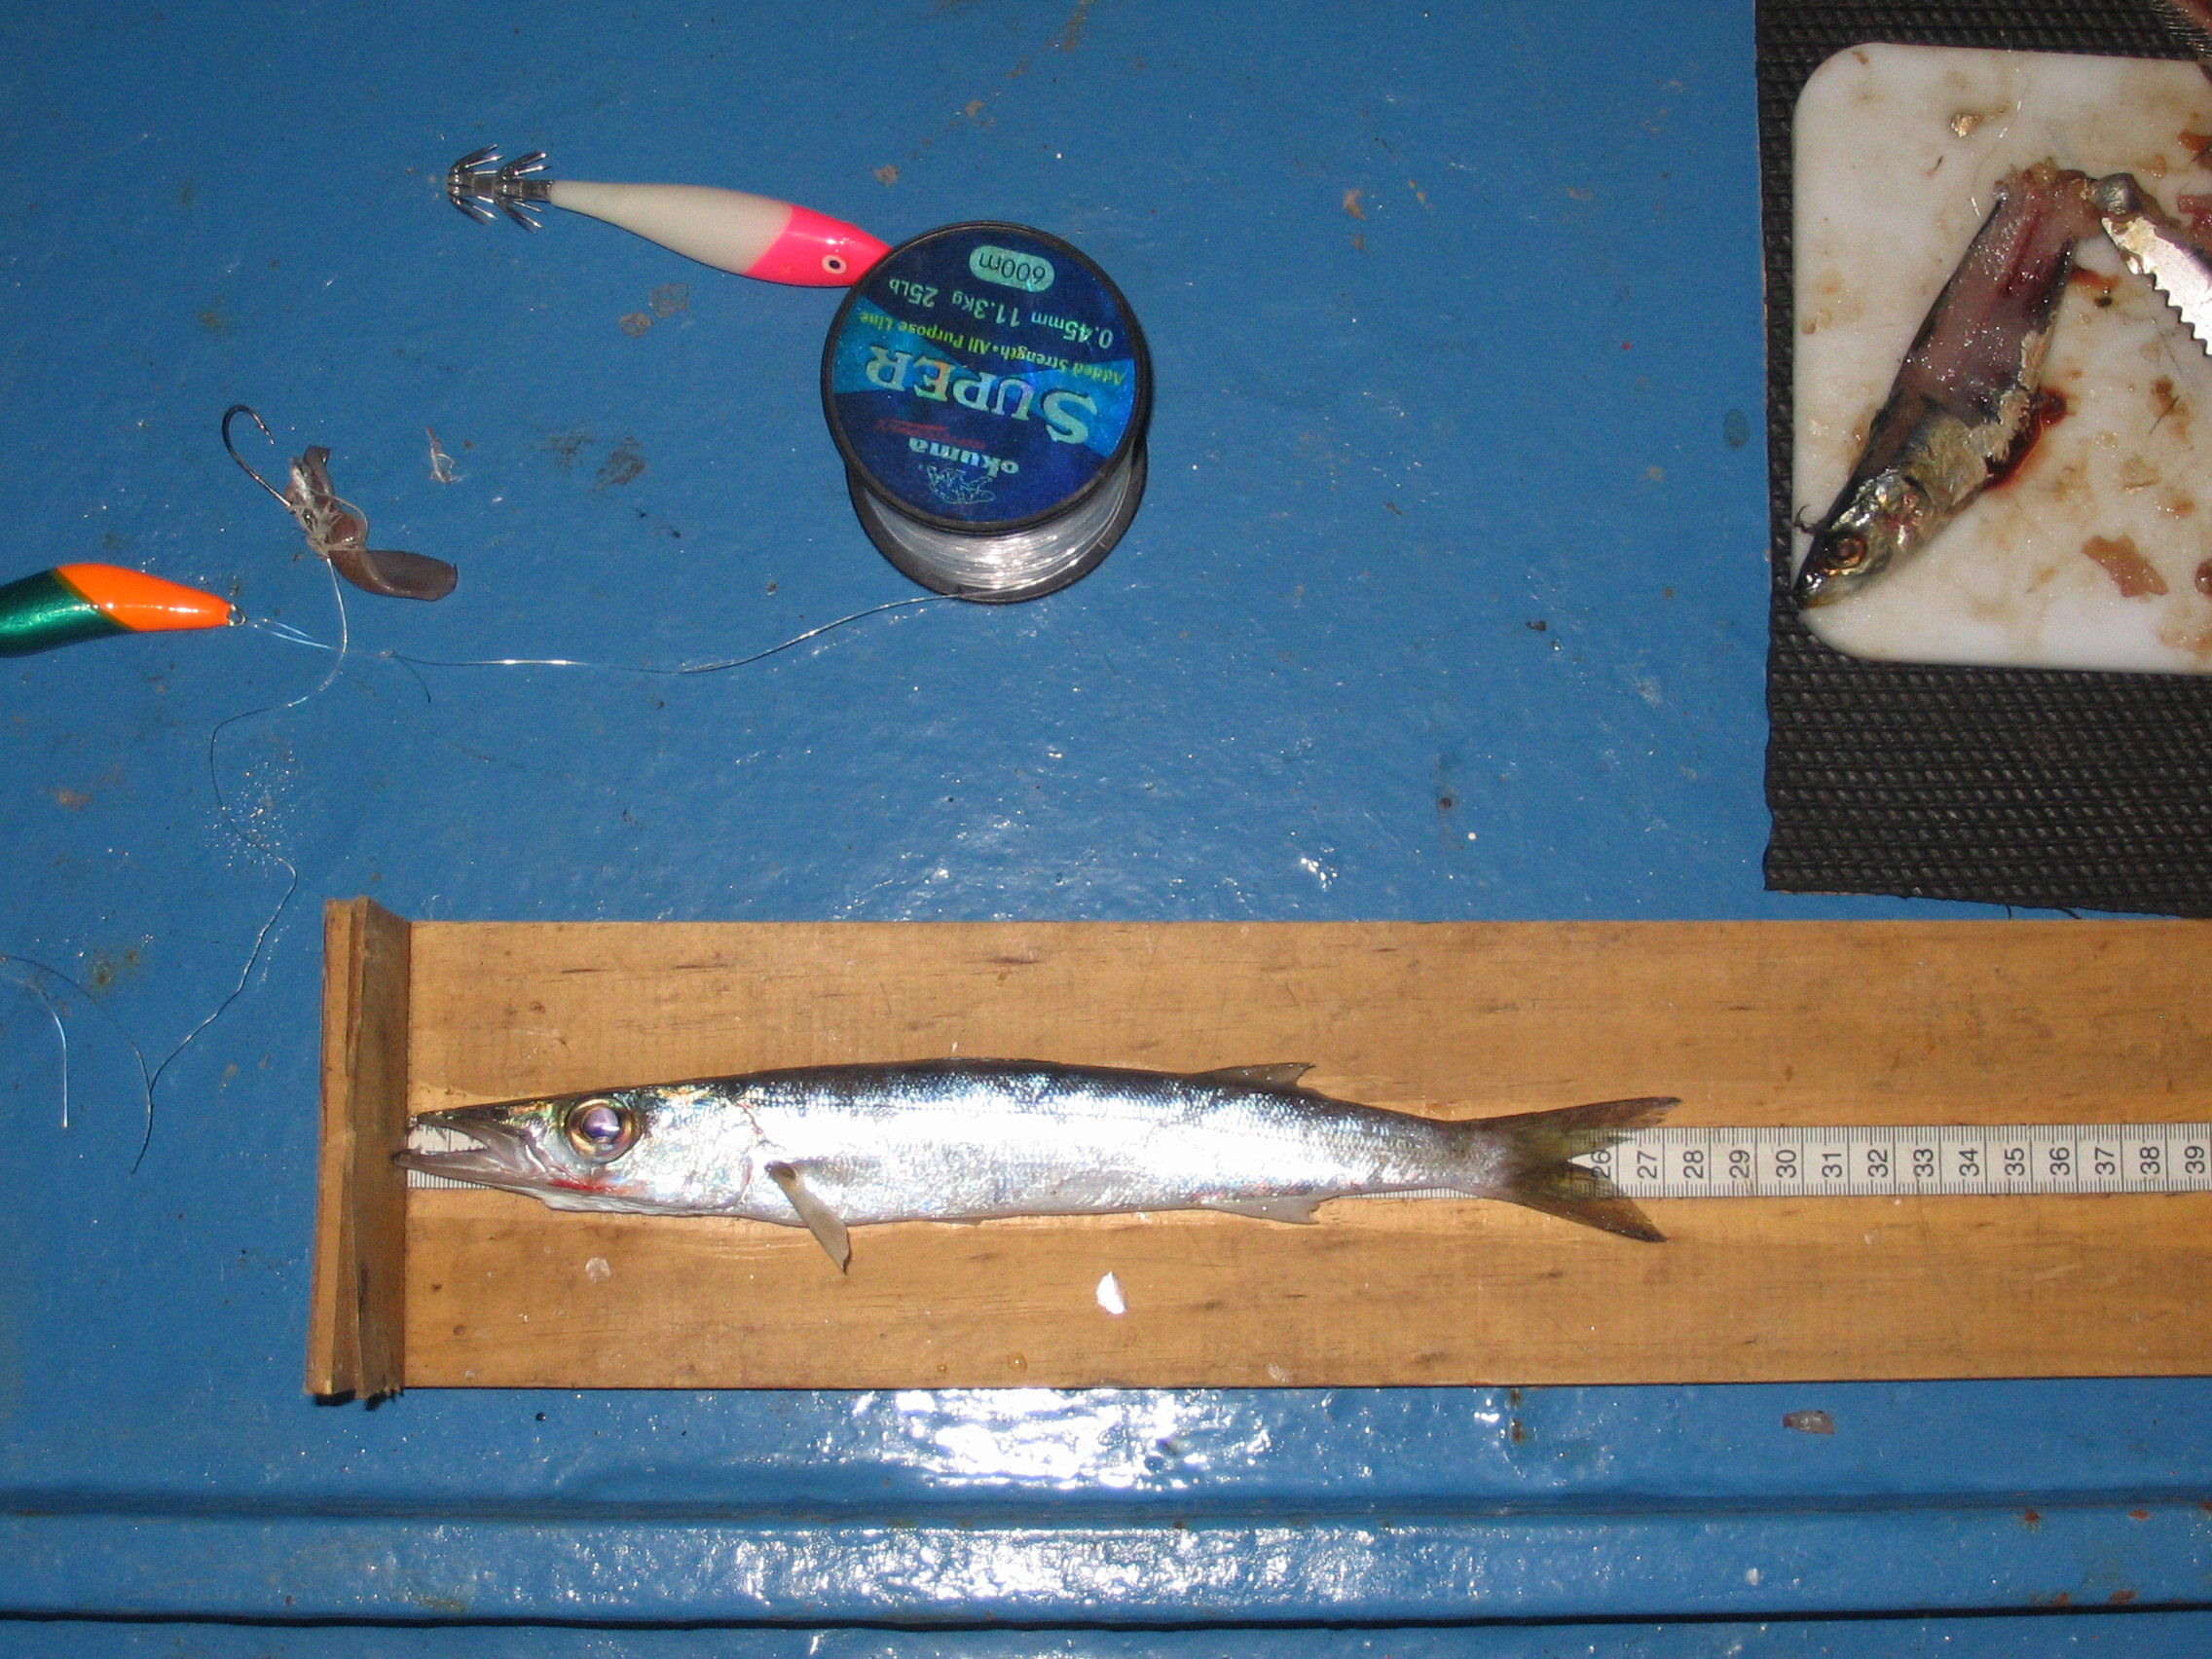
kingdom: Animalia
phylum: Chordata
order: Perciformes
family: Sphyraenidae
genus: Sphyraena
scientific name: Sphyraena forsteri
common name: Bigeye barracuda
